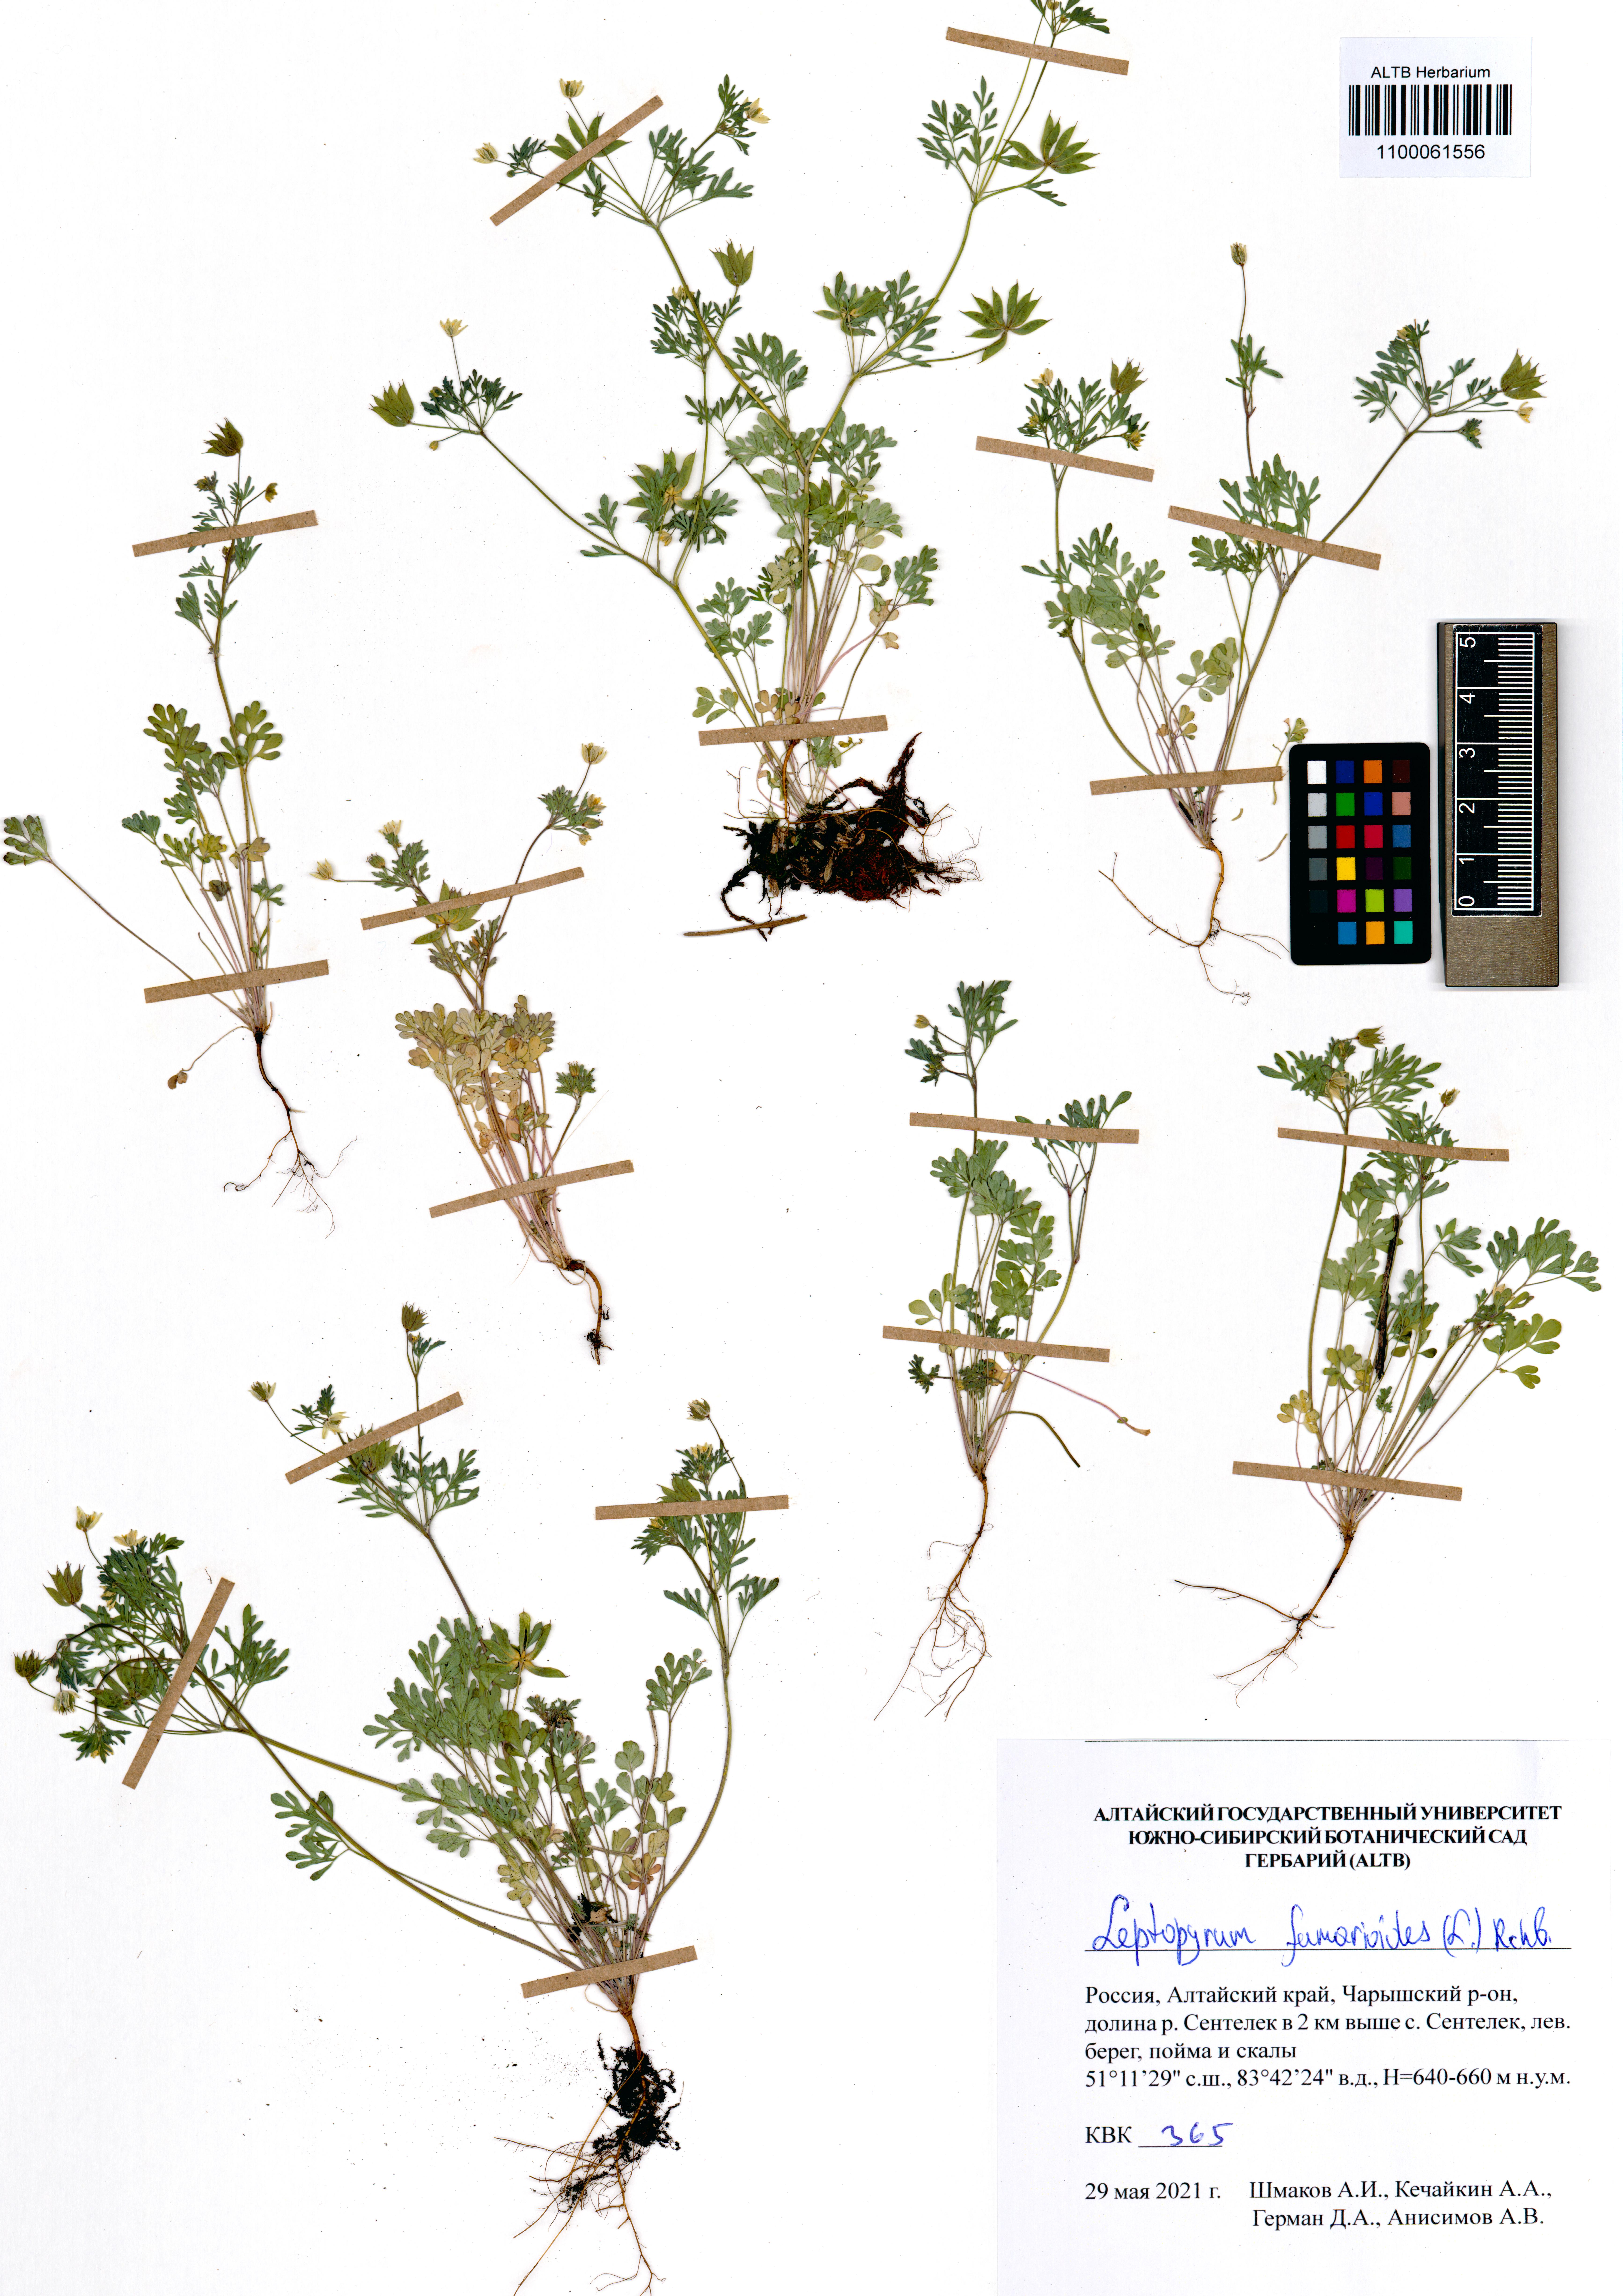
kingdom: Plantae
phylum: Tracheophyta
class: Magnoliopsida
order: Ranunculales
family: Ranunculaceae
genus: Leptopyrum
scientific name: Leptopyrum fumarioides
